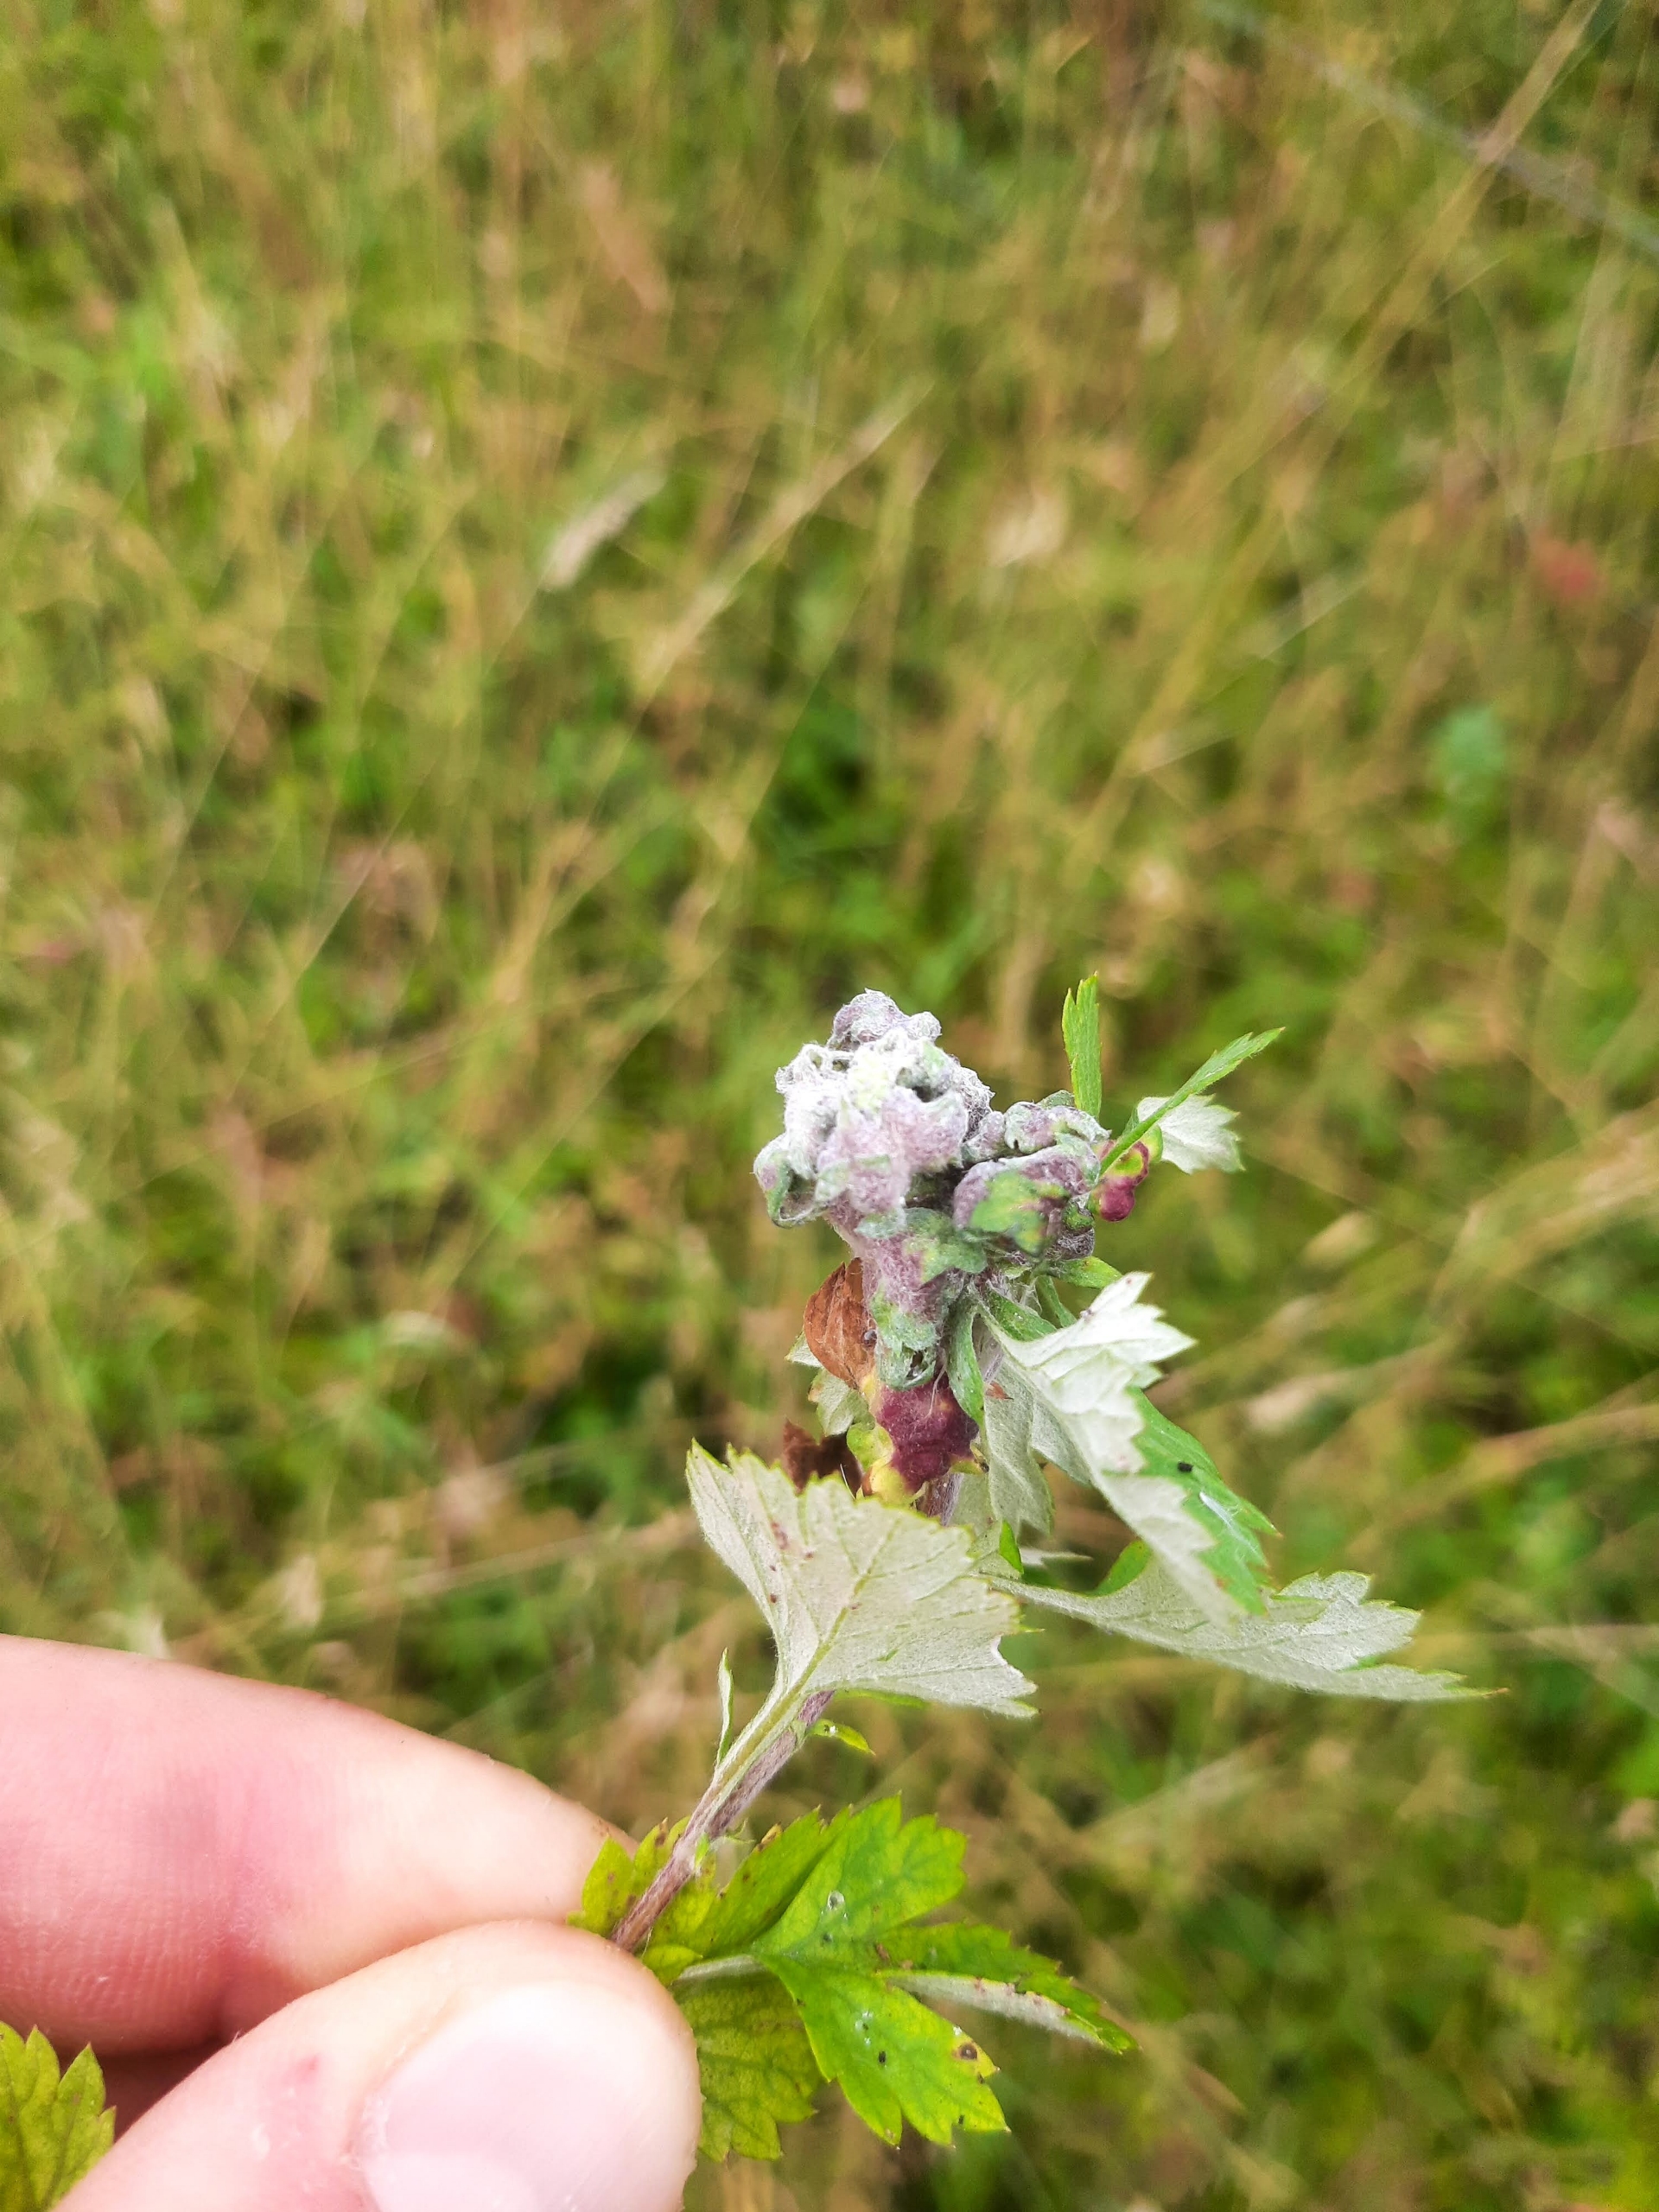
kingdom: Animalia
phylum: Arthropoda
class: Insecta
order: Hemiptera
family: Aphididae
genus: Cryptosiphum
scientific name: Cryptosiphum artemisiae
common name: Bynkegallelus
